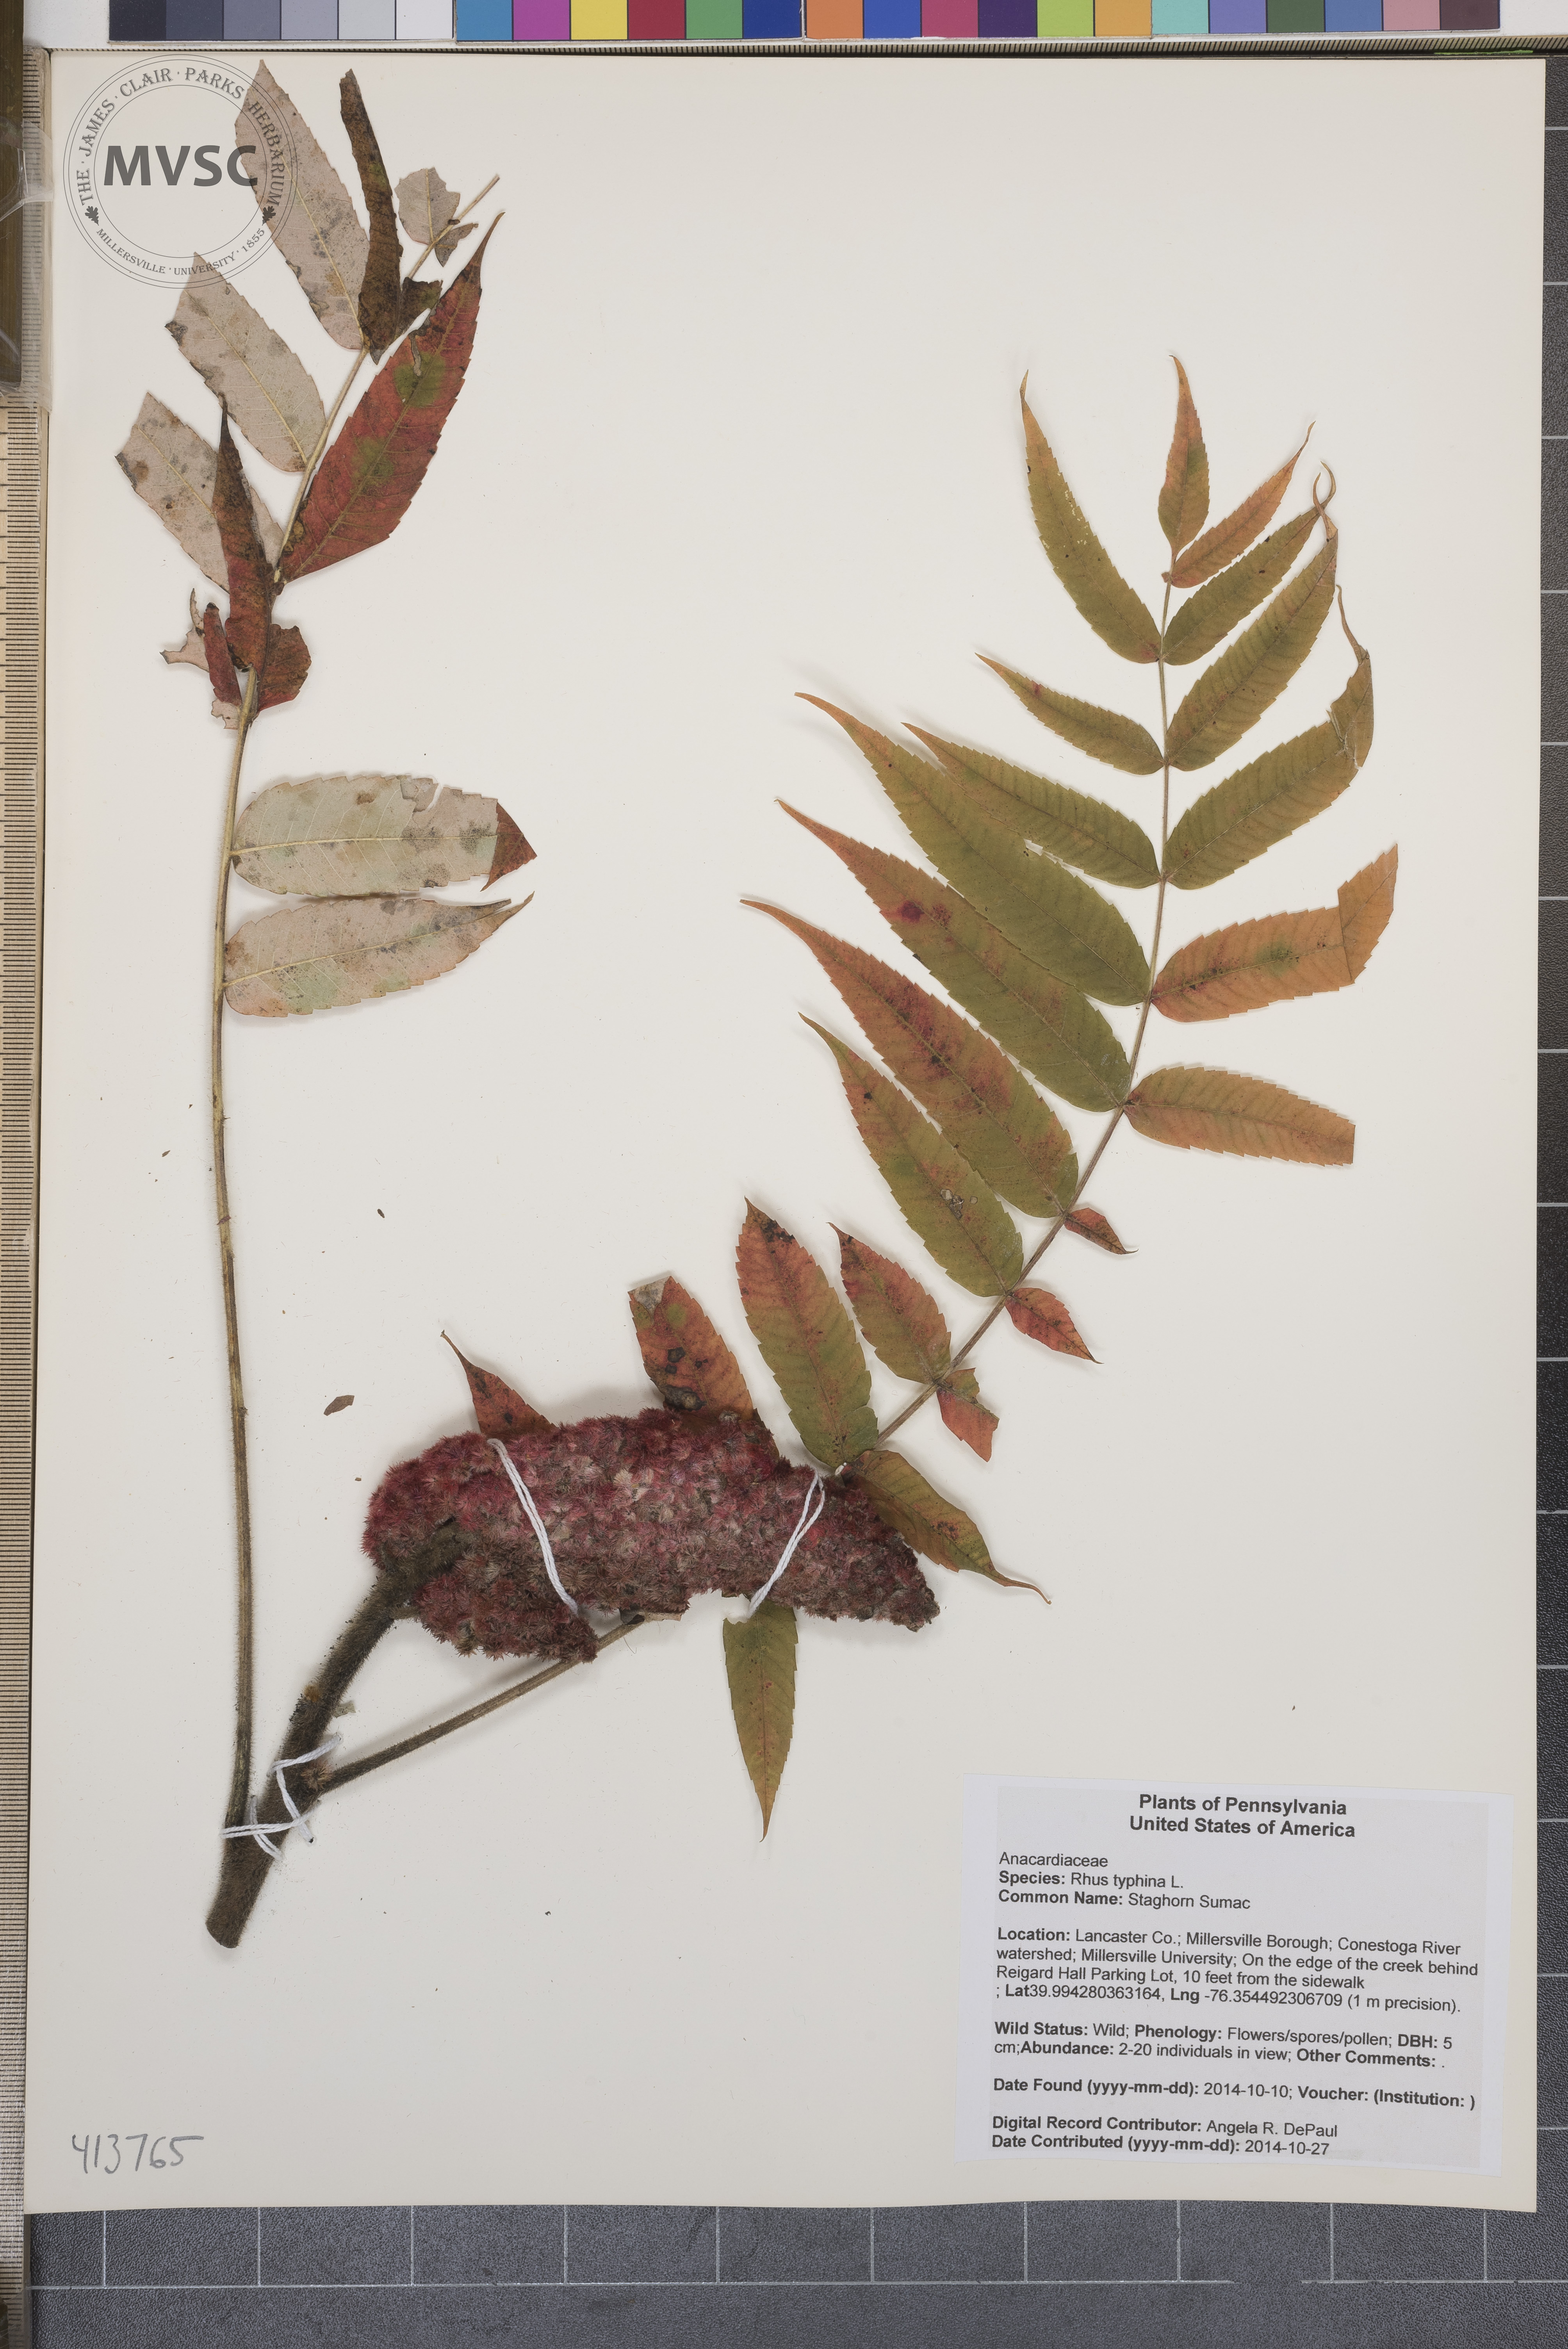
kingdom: Plantae
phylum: Tracheophyta
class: Magnoliopsida
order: Sapindales
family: Anacardiaceae
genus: Rhus
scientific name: Rhus typhina
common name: Staghorn Sumac
